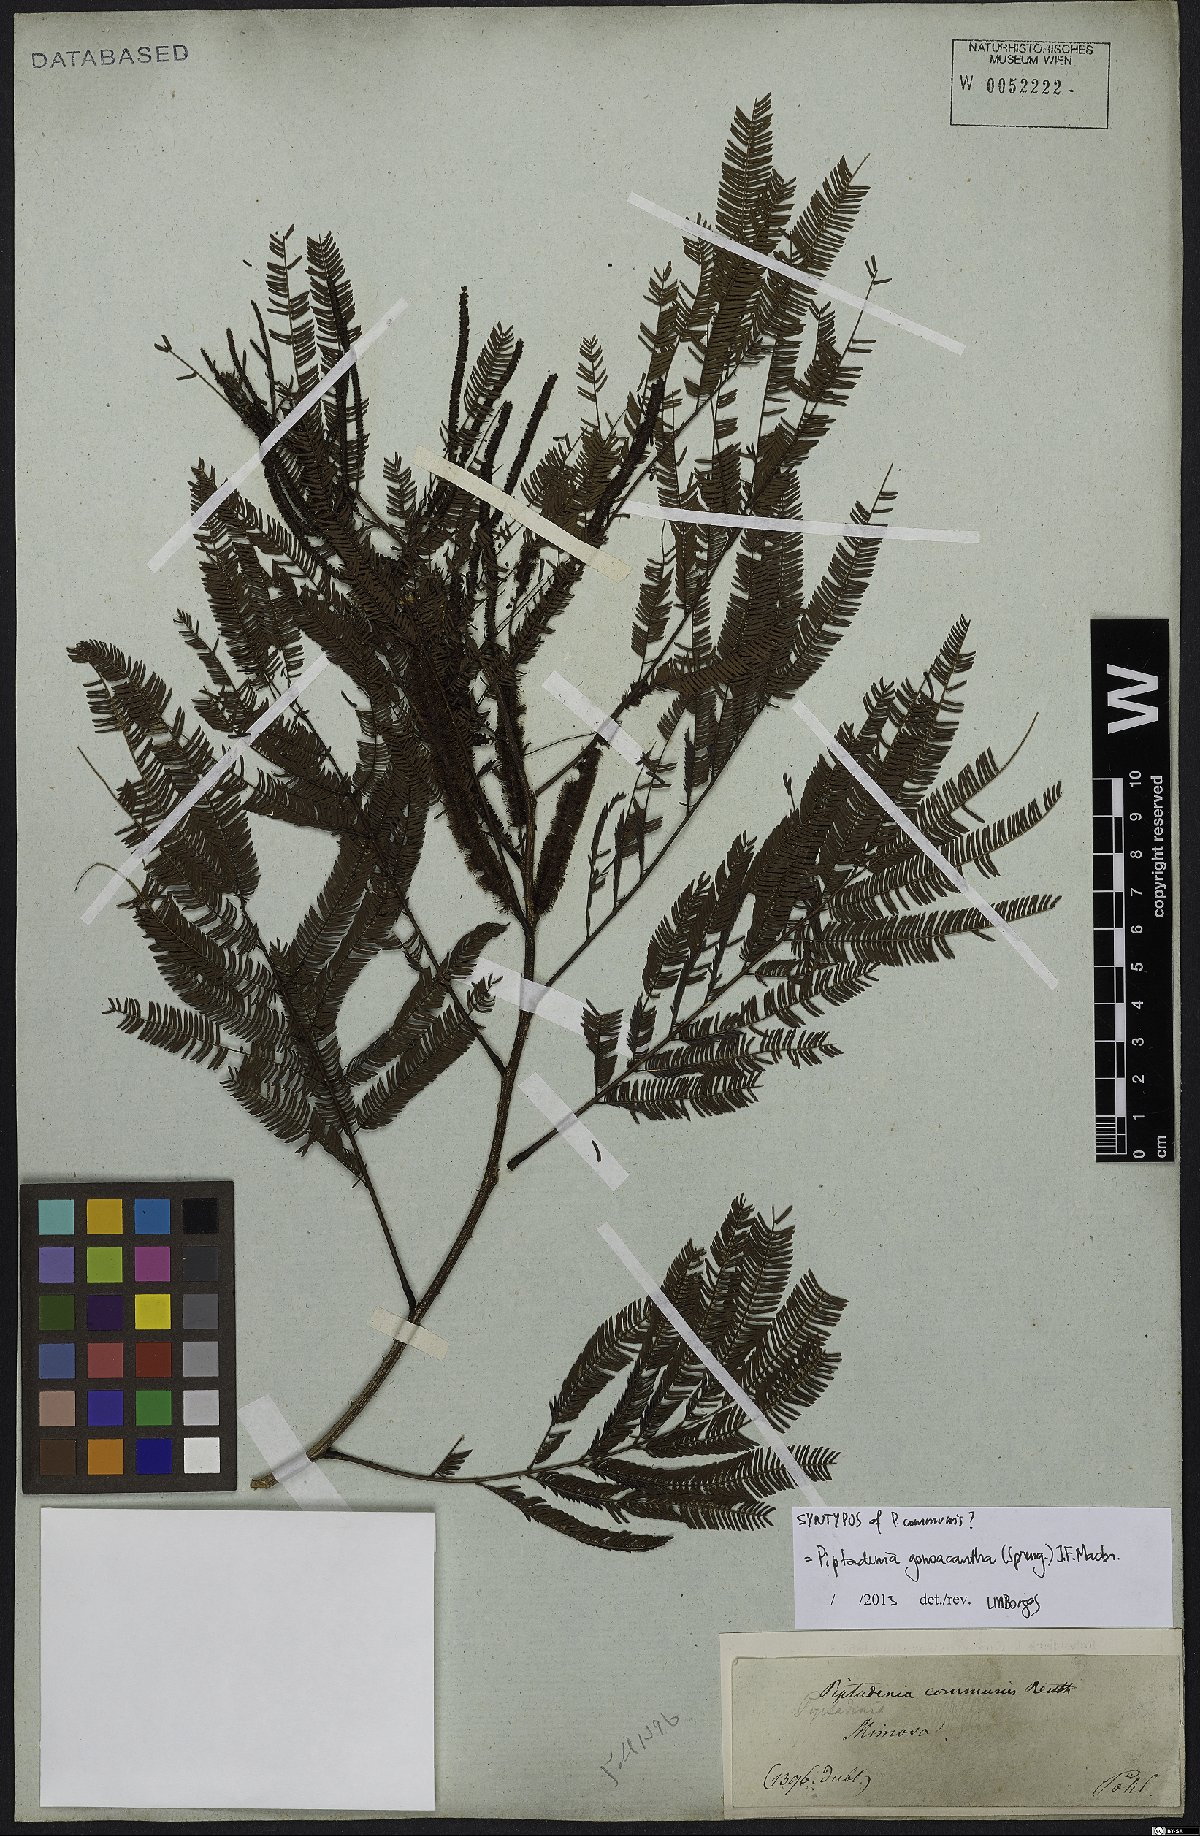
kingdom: Plantae
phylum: Tracheophyta
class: Magnoliopsida
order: Fabales
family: Fabaceae
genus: Piptadenia
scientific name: Piptadenia gonoacantha
